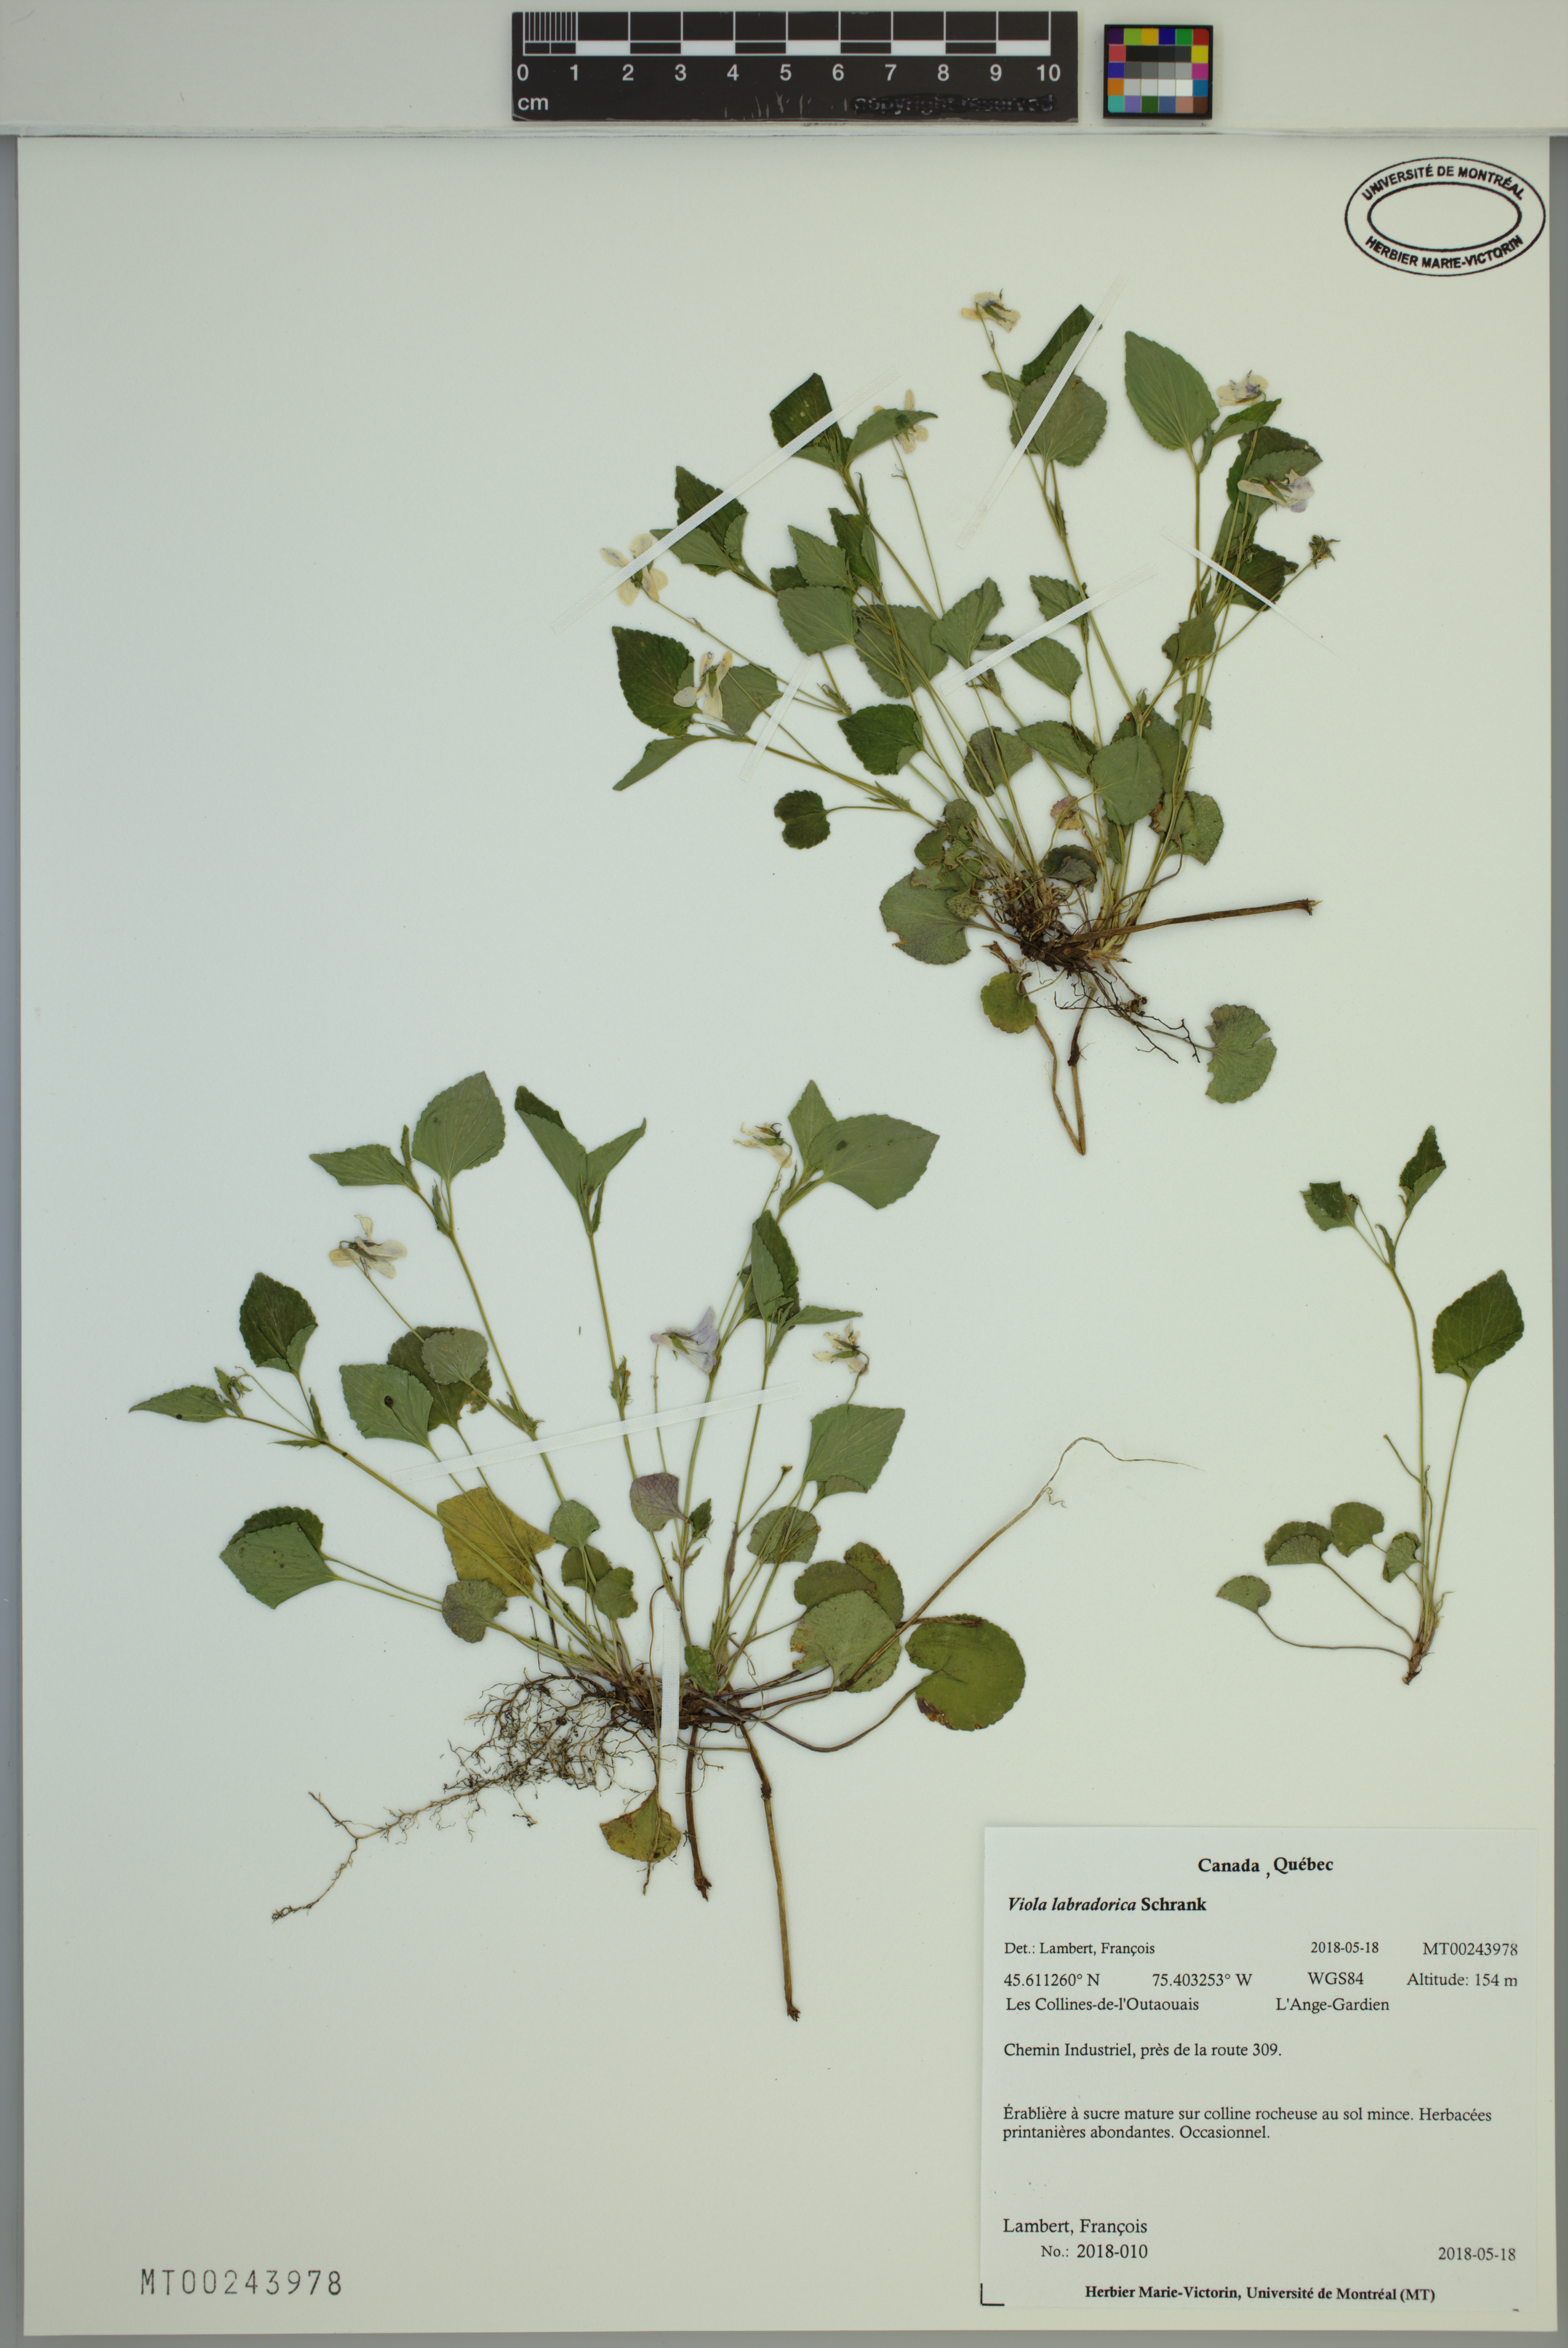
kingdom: Plantae
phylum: Tracheophyta
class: Magnoliopsida
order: Malpighiales
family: Violaceae
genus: Viola
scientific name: Viola labradorica
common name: Labrador violet
